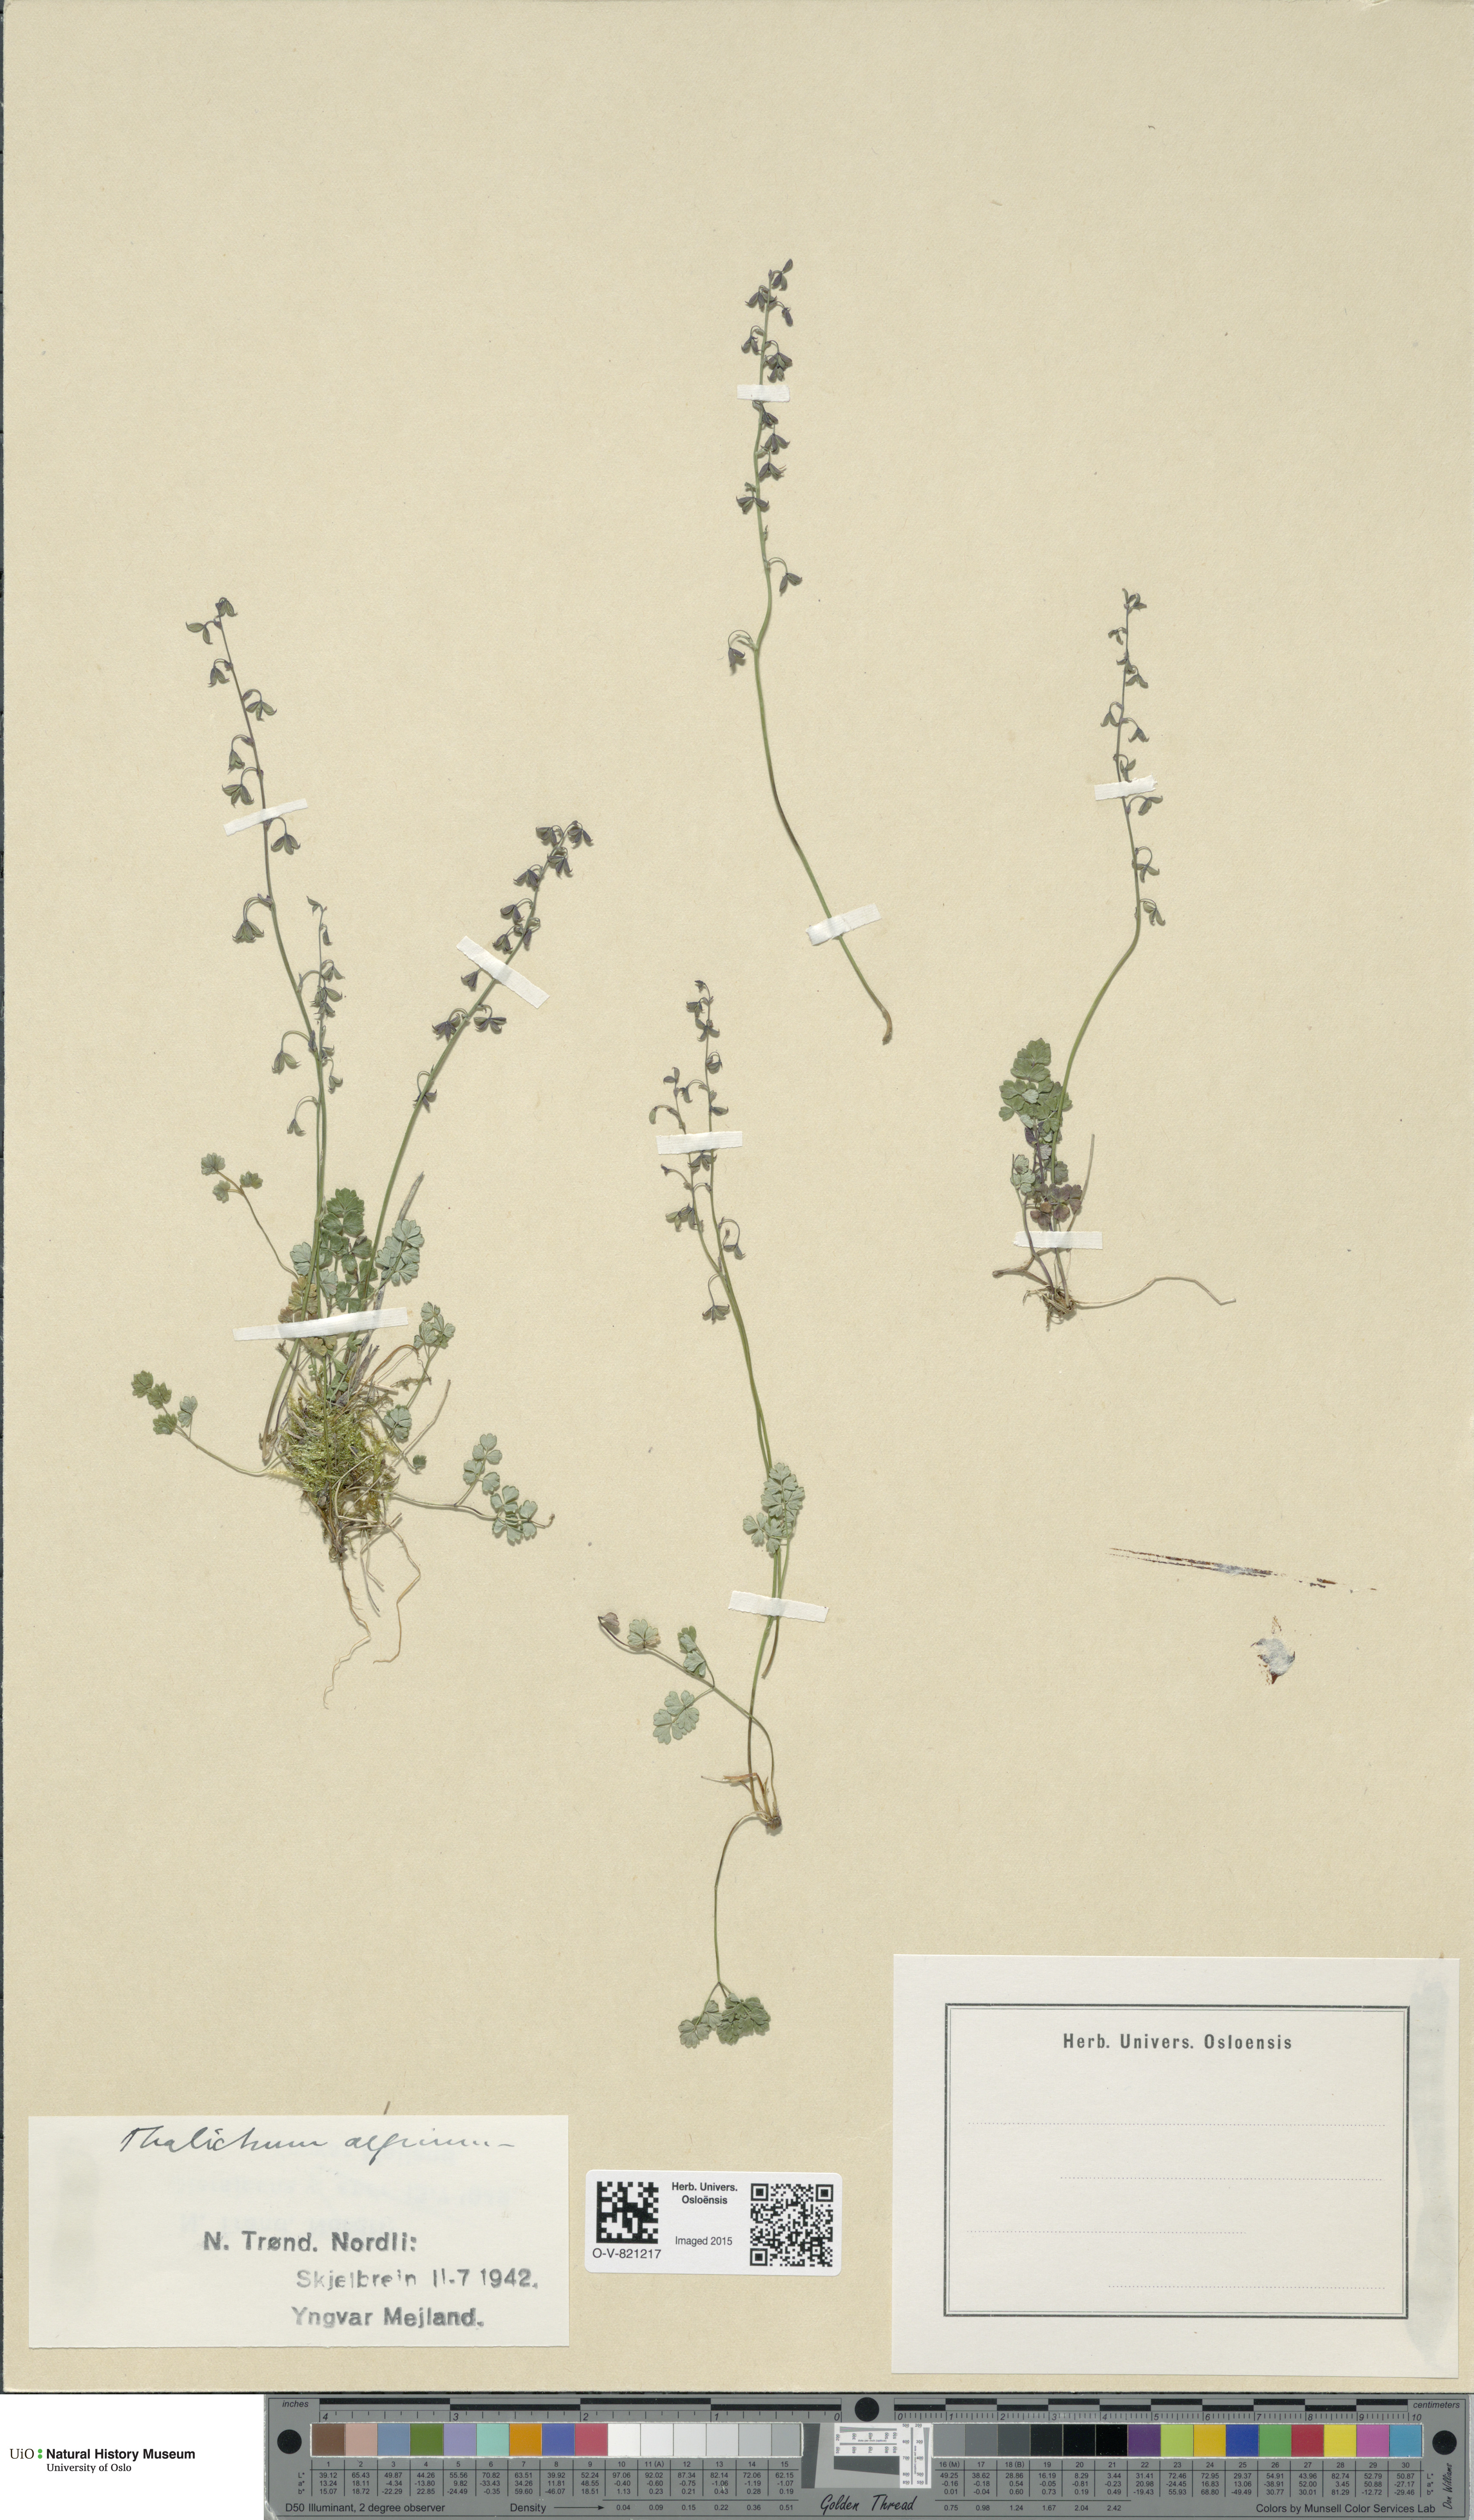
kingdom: Plantae
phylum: Tracheophyta
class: Magnoliopsida
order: Ranunculales
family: Ranunculaceae
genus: Thalictrum
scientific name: Thalictrum alpinum
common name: Alpine meadow-rue
